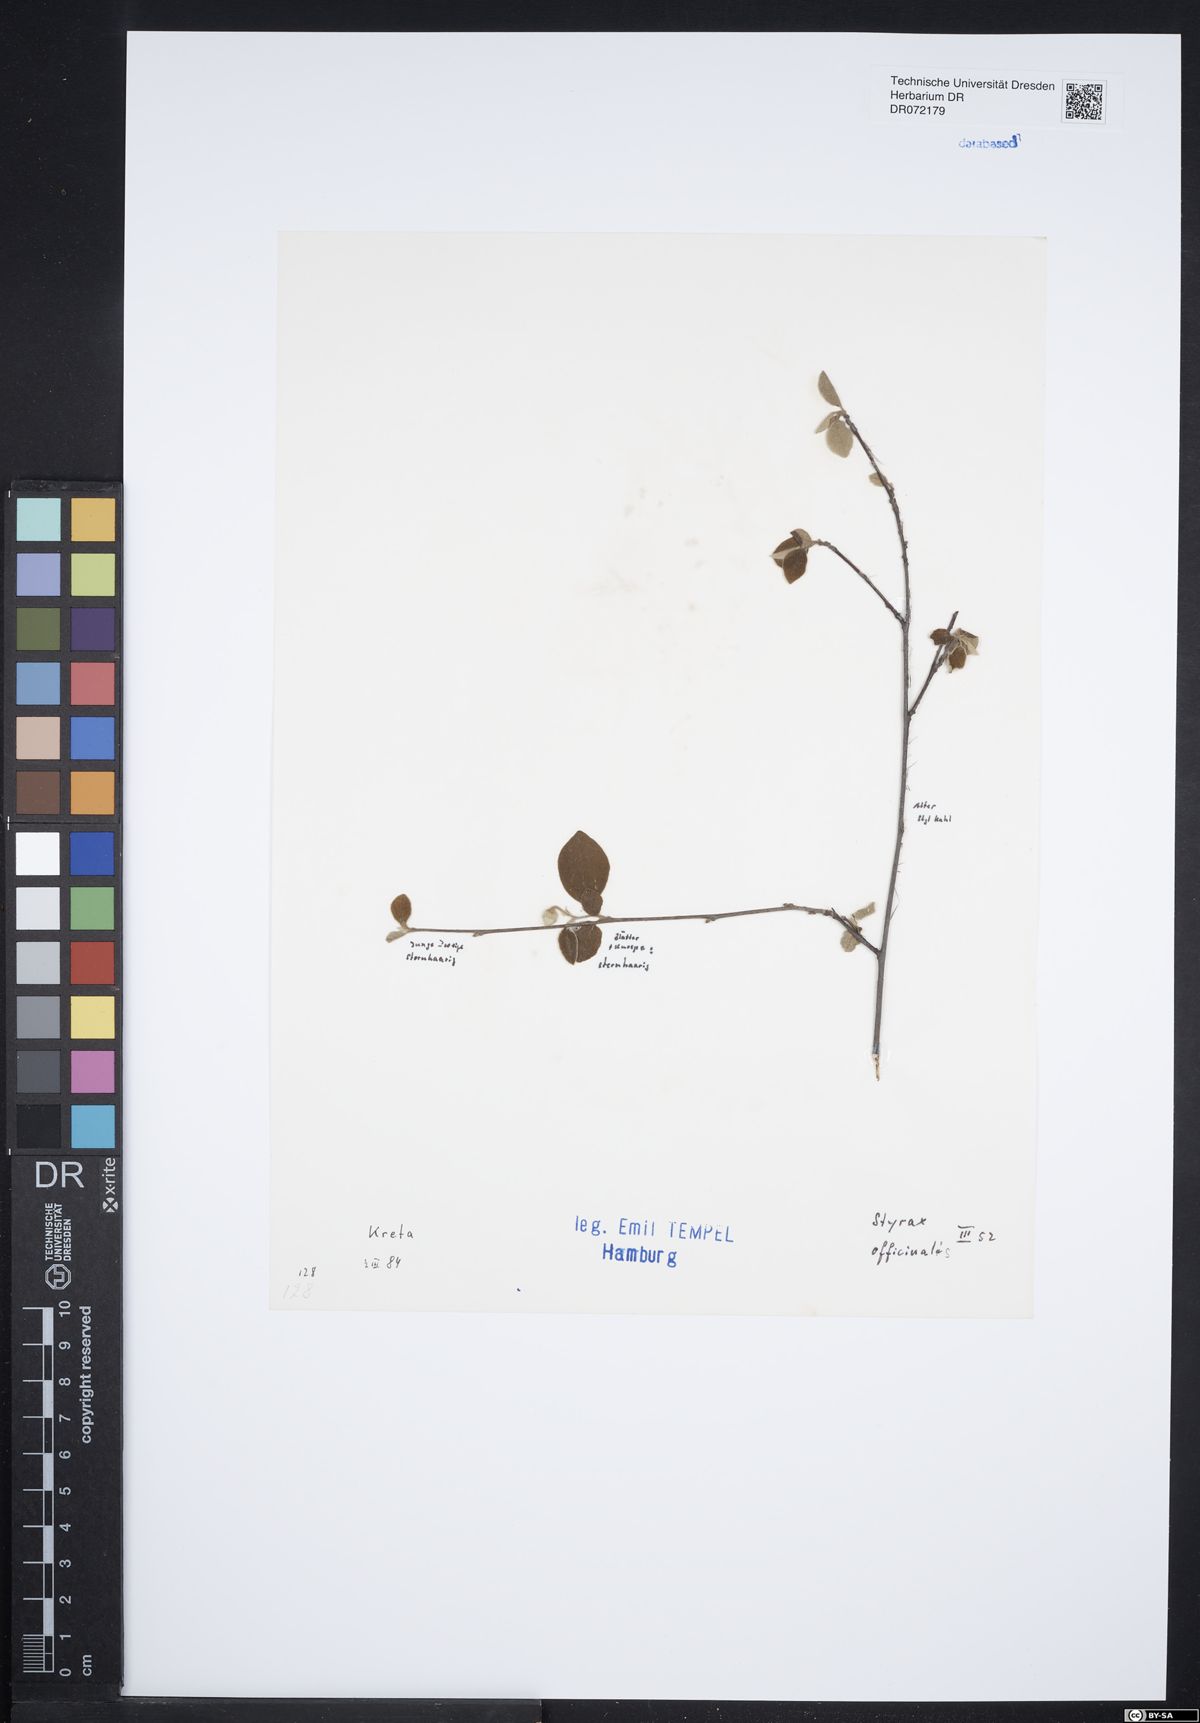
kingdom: Plantae
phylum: Tracheophyta
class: Magnoliopsida
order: Ericales
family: Styracaceae
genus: Styrax
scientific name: Styrax officinalis
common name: Storax
